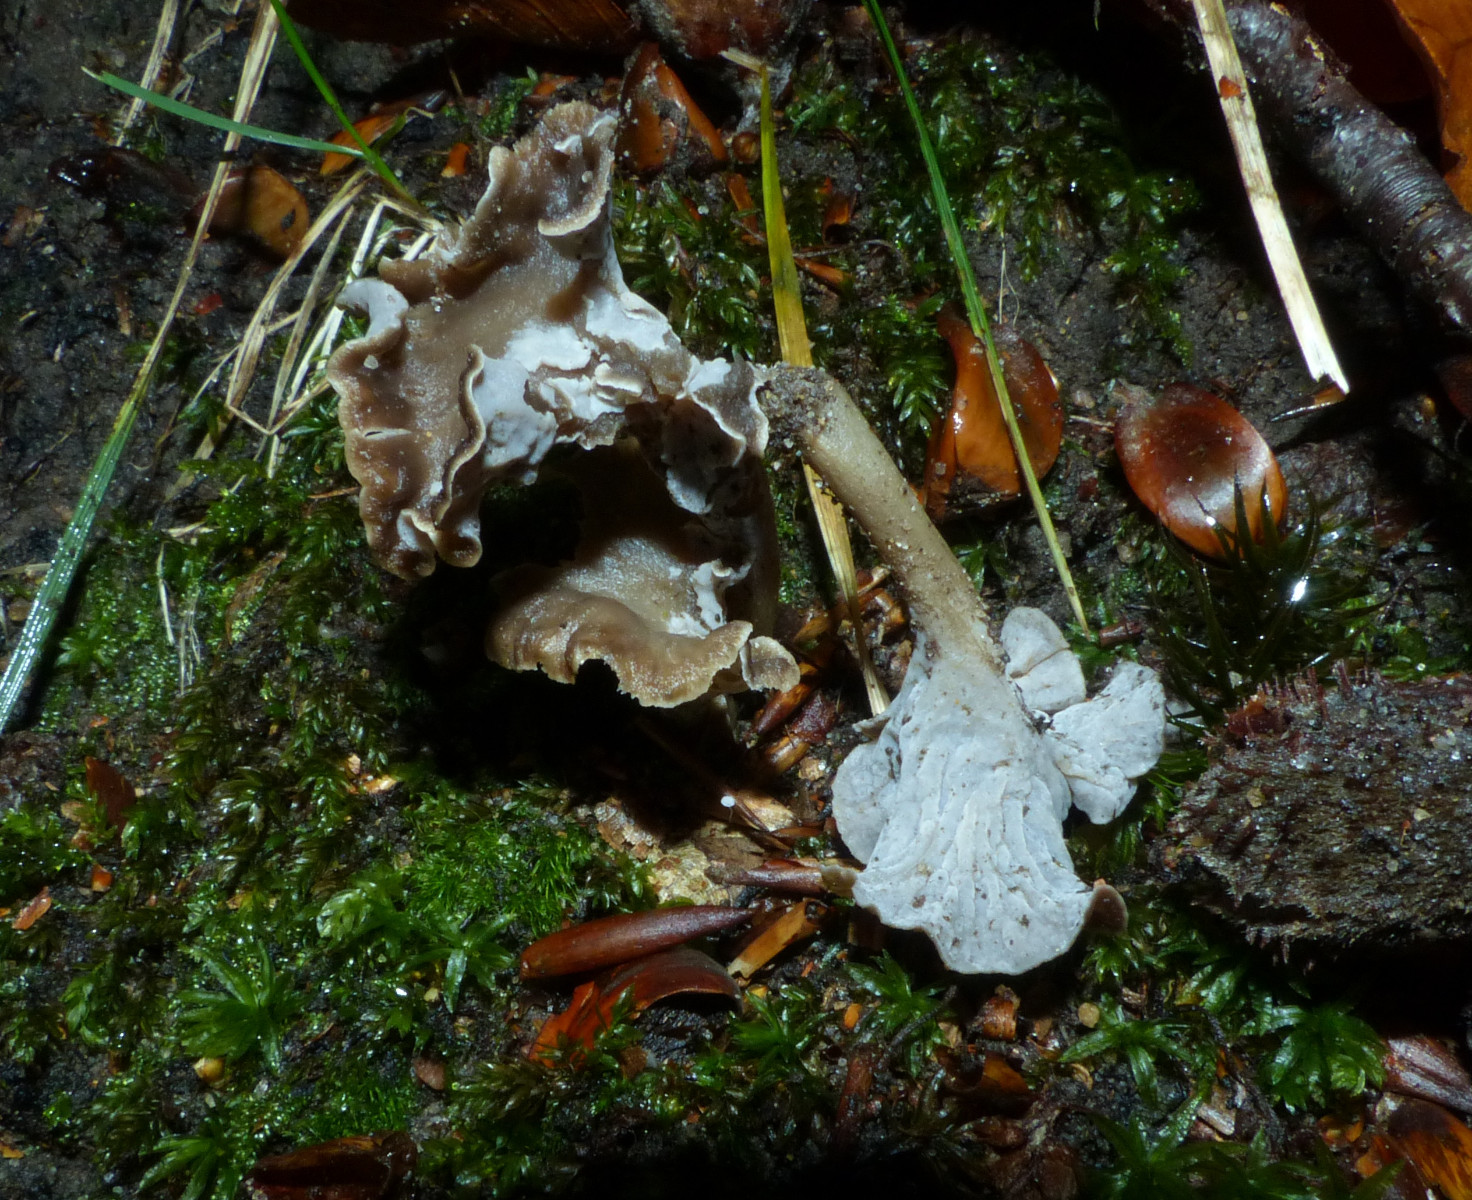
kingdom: Fungi
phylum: Basidiomycota
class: Agaricomycetes
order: Cantharellales
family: Hydnaceae
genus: Craterellus
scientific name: Craterellus undulatus
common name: liden kantarel
